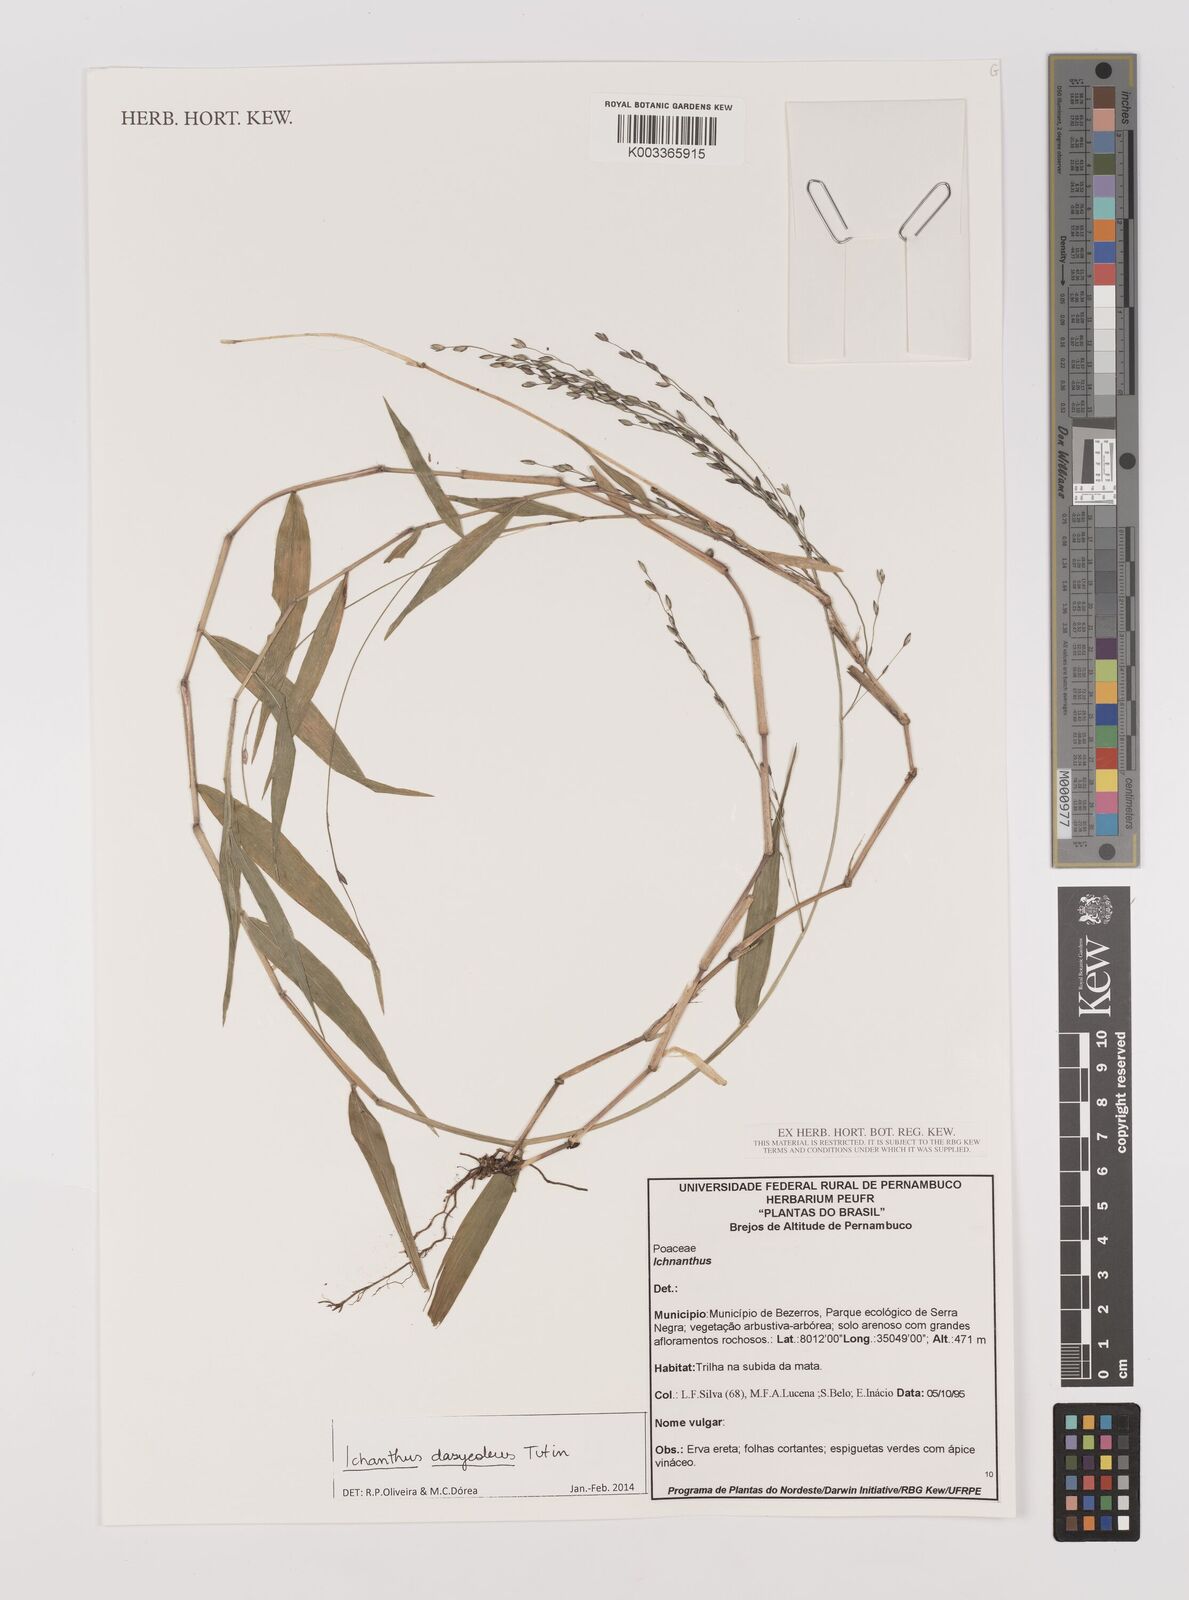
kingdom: Plantae
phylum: Tracheophyta
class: Liliopsida
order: Poales
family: Poaceae
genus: Ichnanthus
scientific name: Ichnanthus dasycoleus
